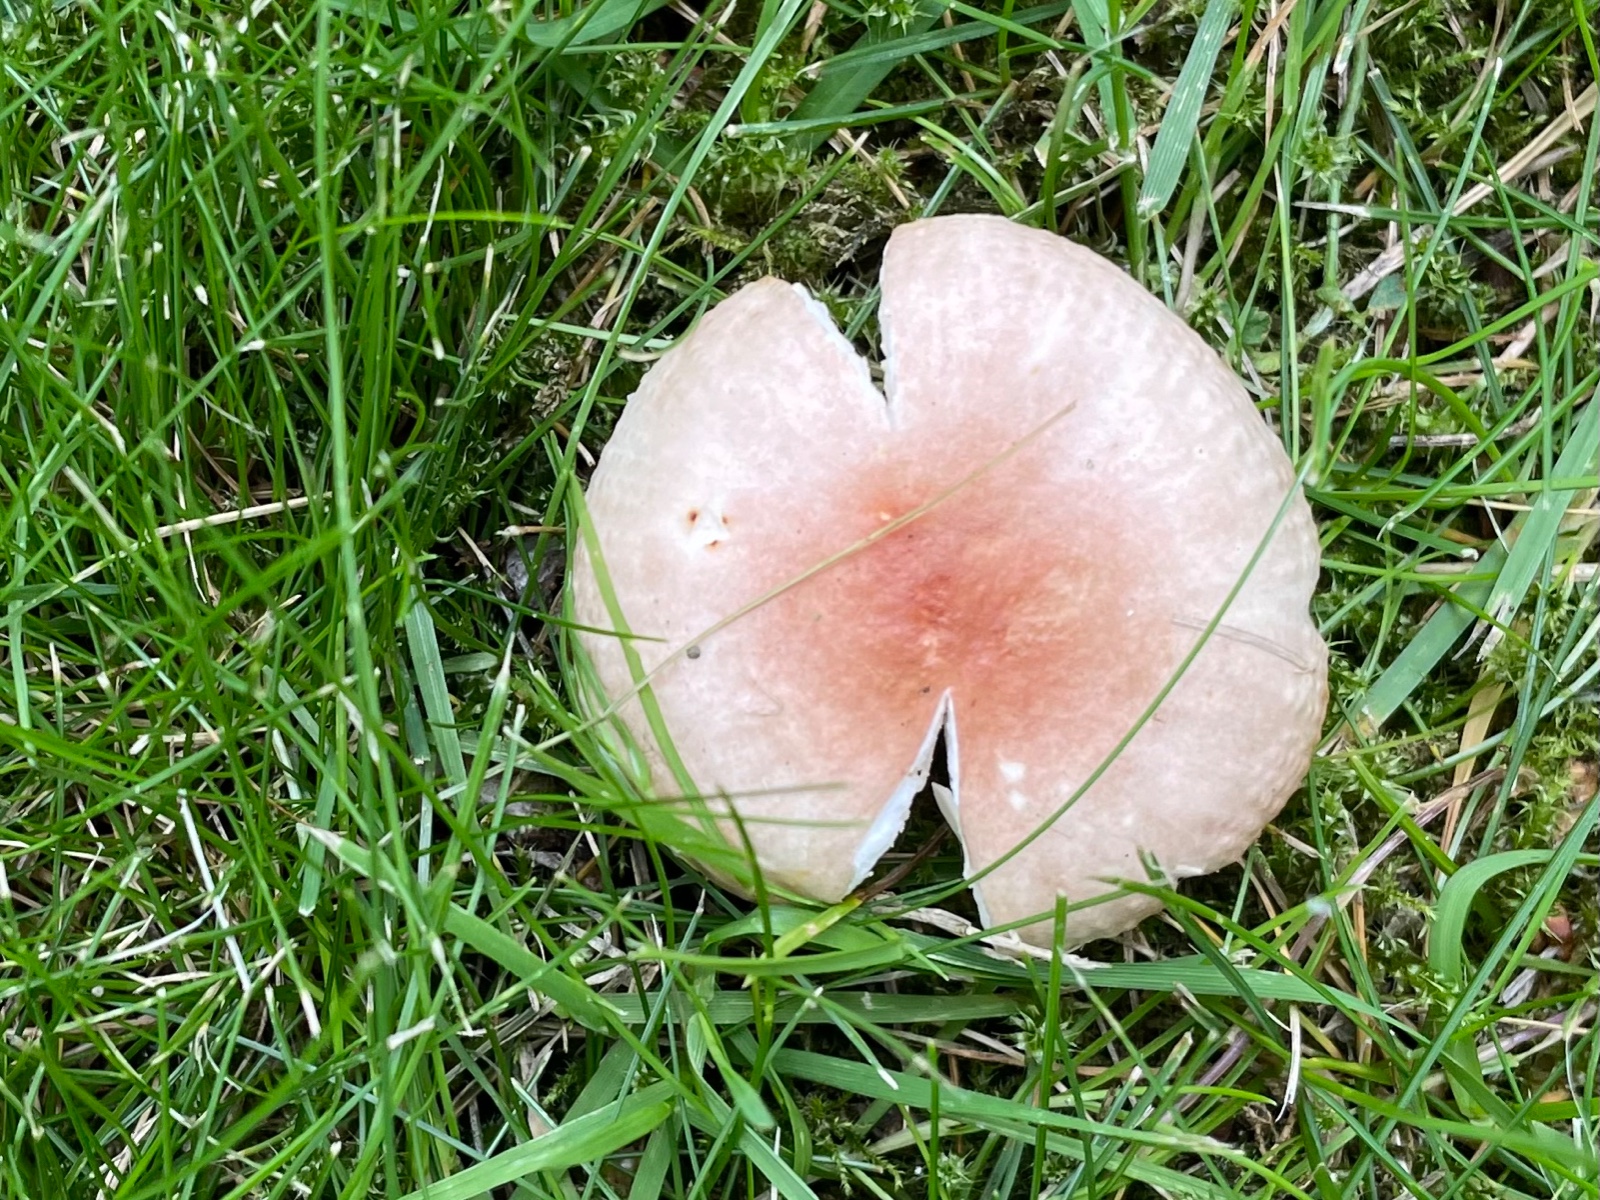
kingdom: Fungi
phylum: Basidiomycota
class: Agaricomycetes
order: Russulales
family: Russulaceae
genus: Russula
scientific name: Russula
